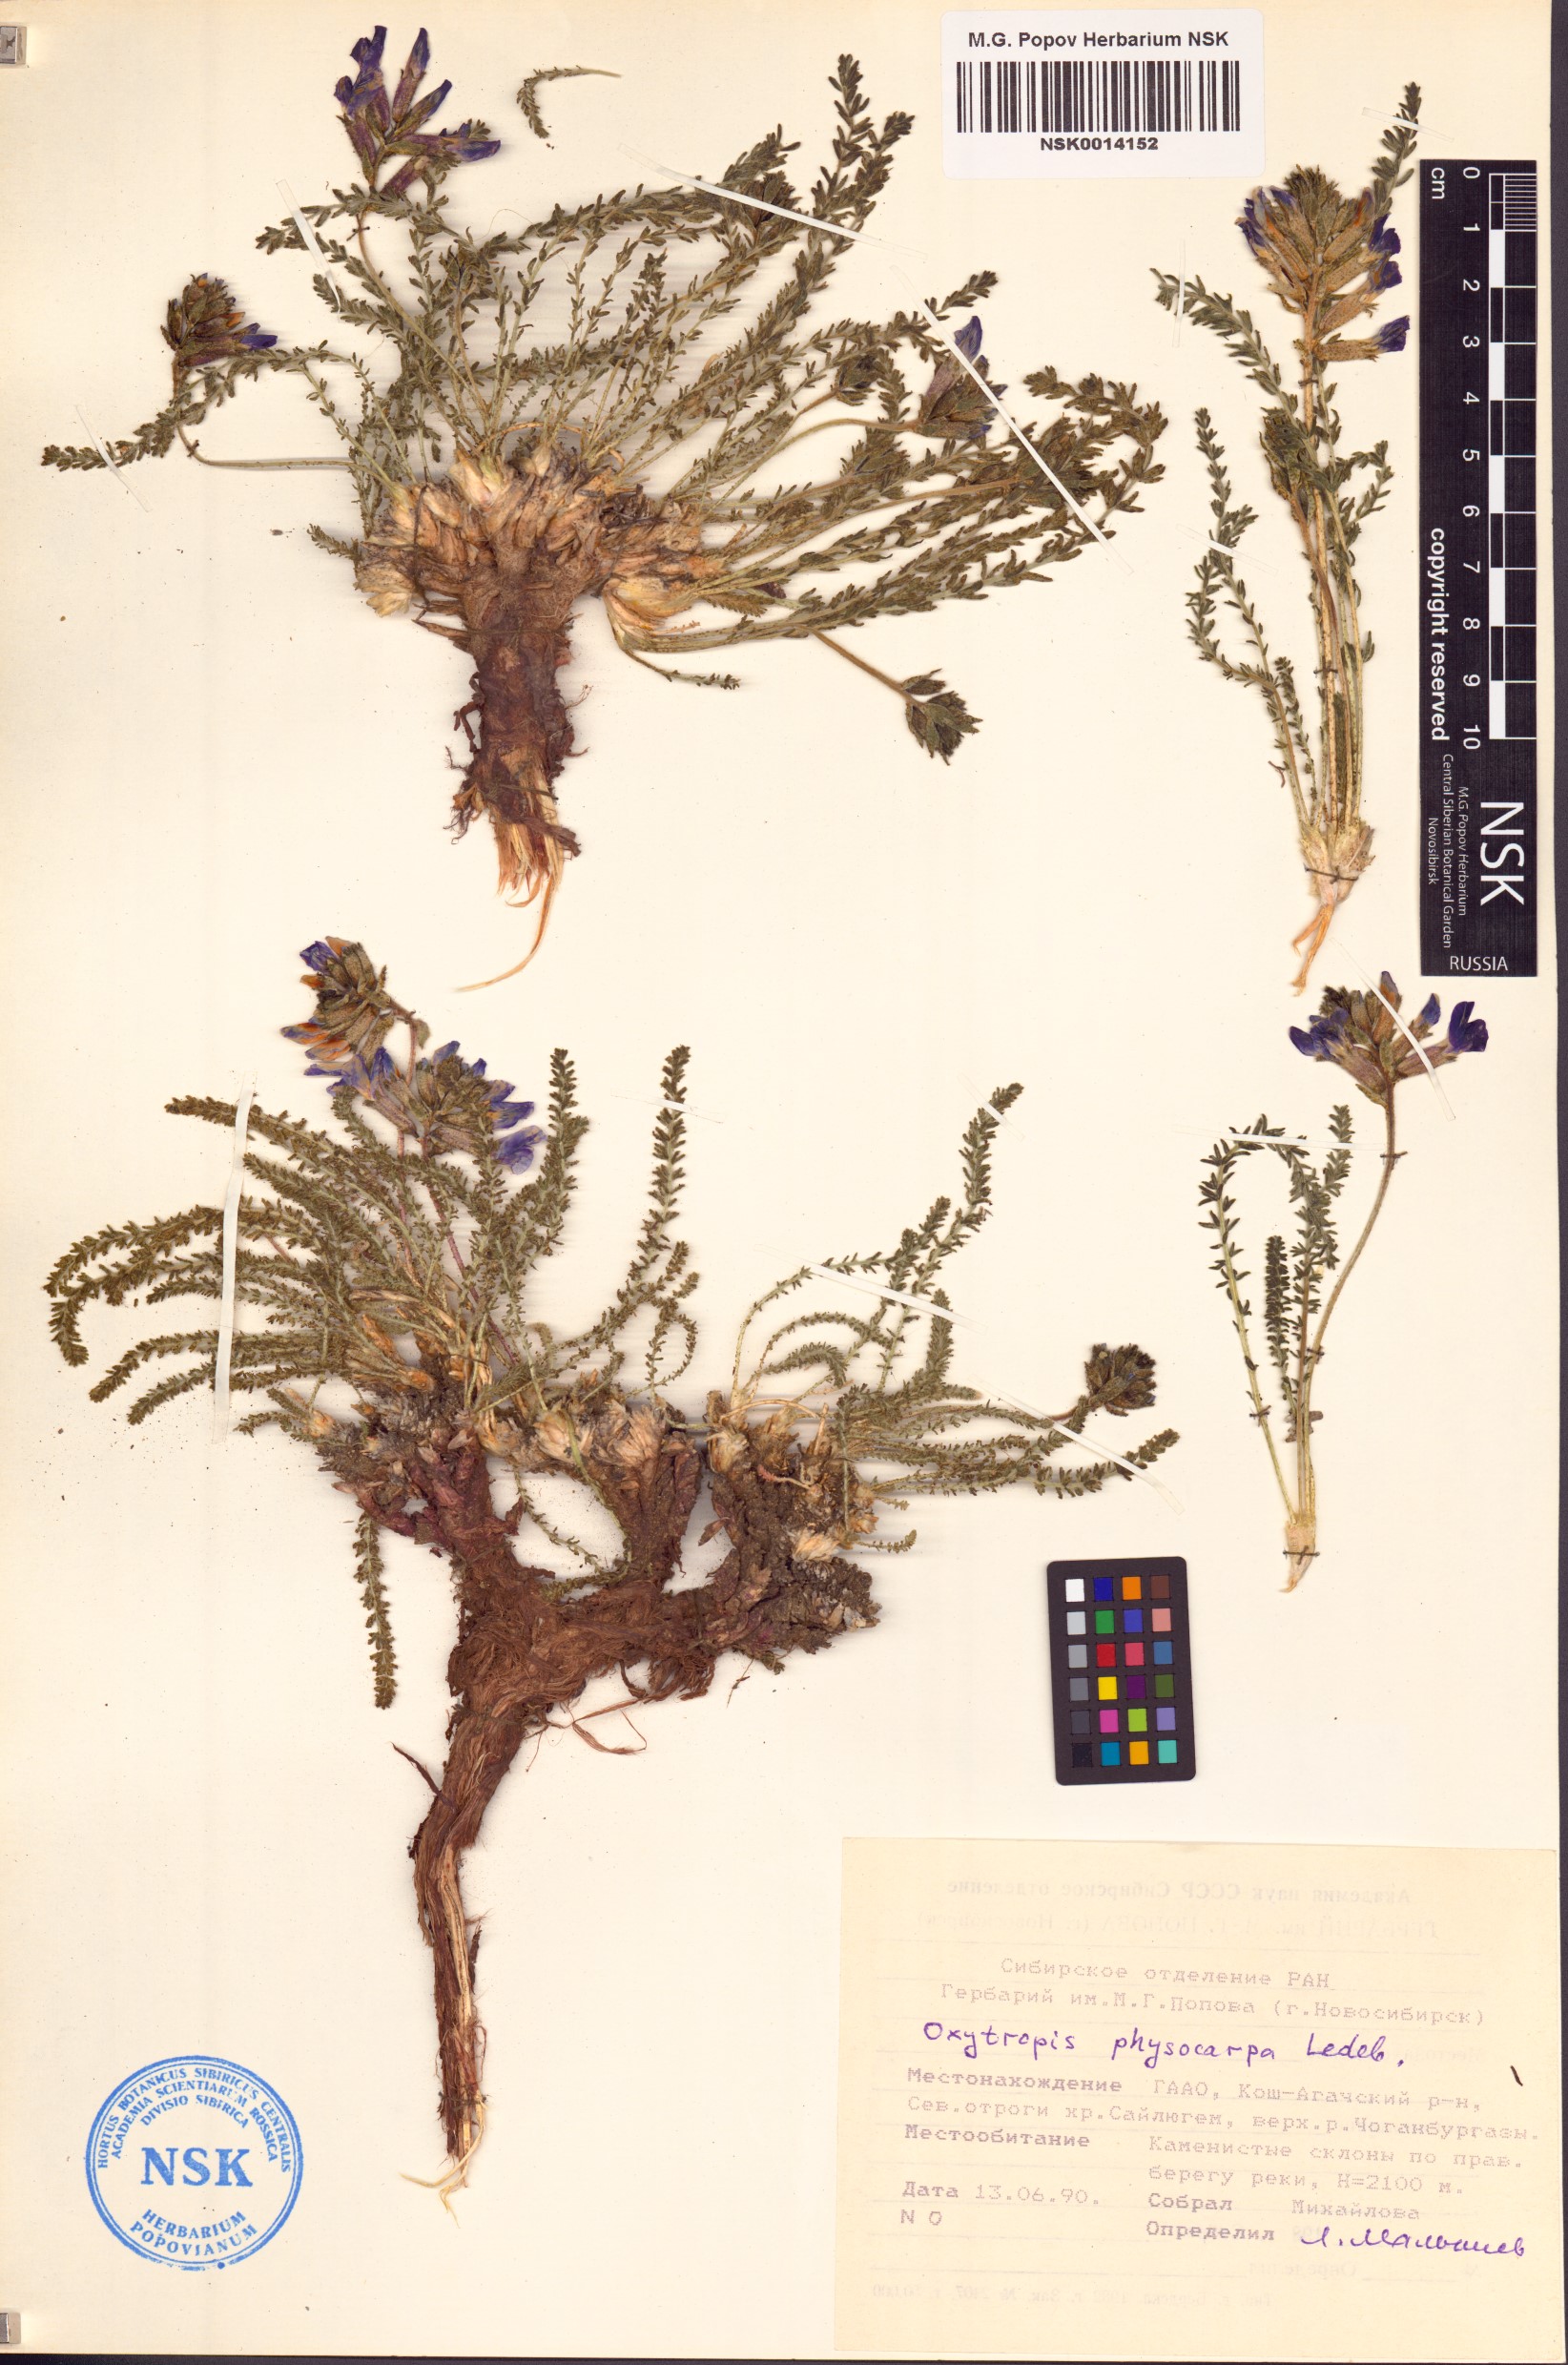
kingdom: Plantae
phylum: Tracheophyta
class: Magnoliopsida
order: Fabales
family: Fabaceae
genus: Oxytropis
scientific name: Oxytropis physocarpa
